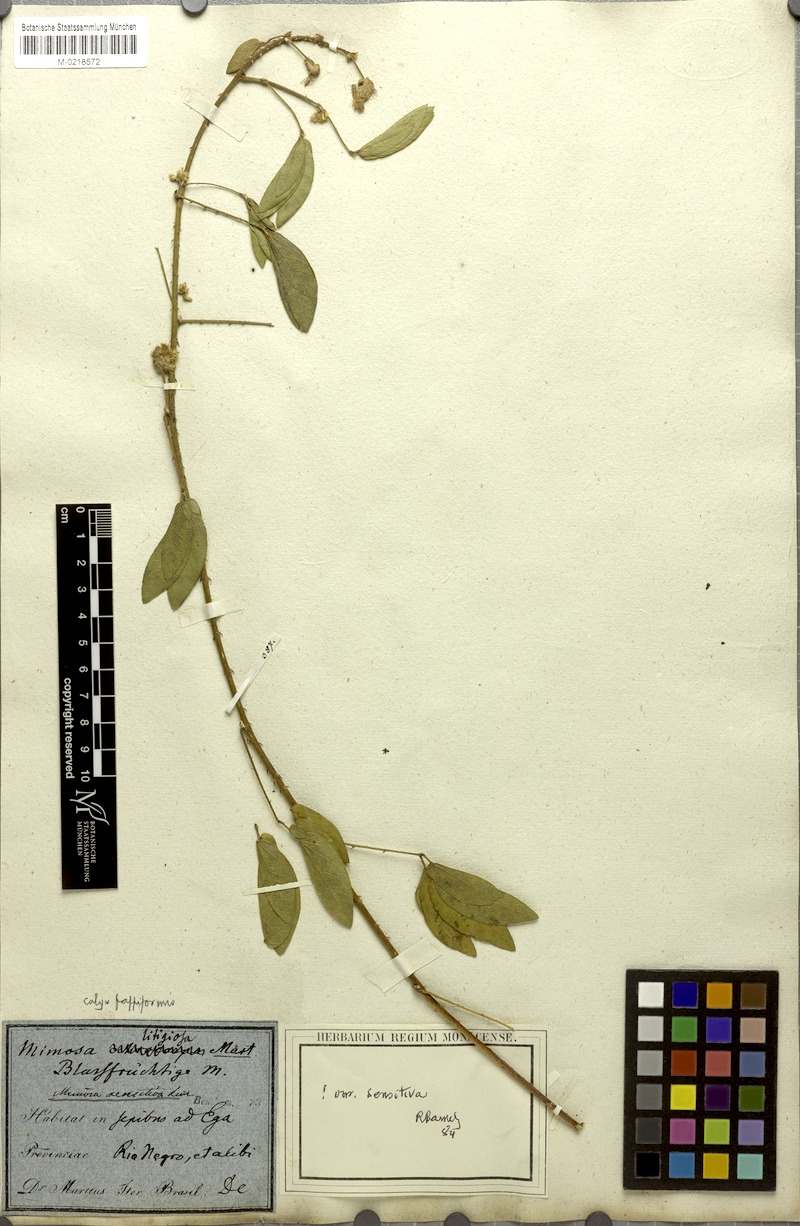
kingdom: Plantae
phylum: Tracheophyta
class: Magnoliopsida
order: Fabales
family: Fabaceae
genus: Mimosa
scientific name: Mimosa sensitiva
